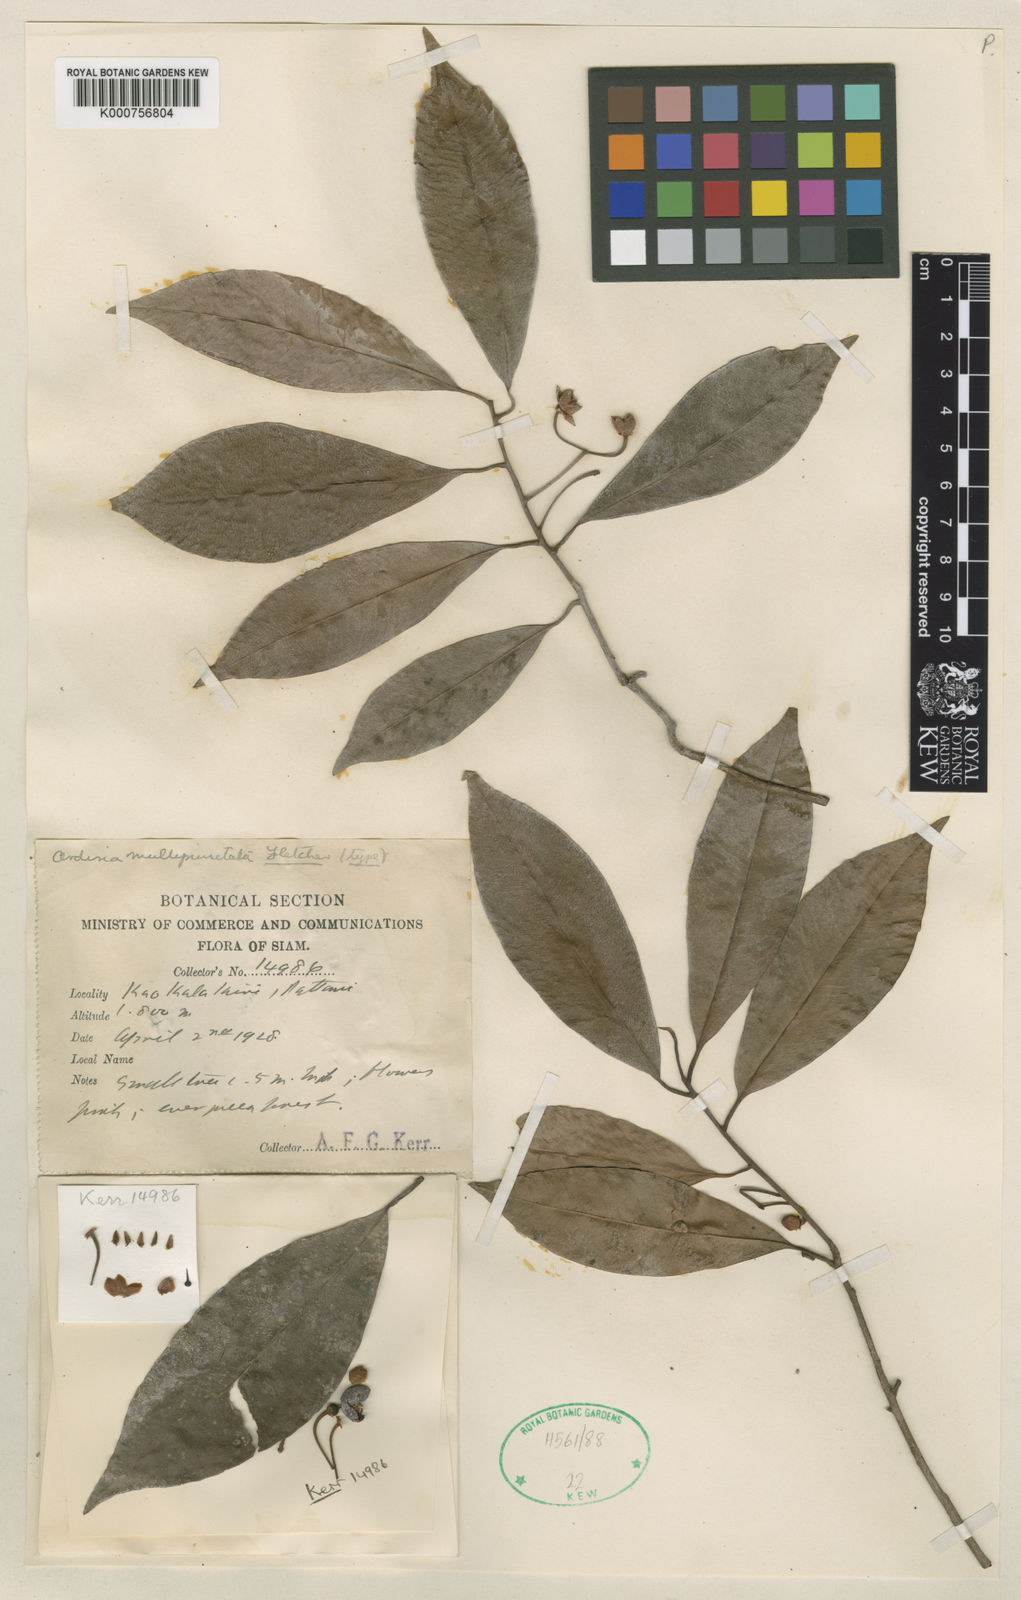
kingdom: Plantae
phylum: Tracheophyta
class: Magnoliopsida
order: Ericales
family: Primulaceae
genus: Ardisia
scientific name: Ardisia multipunctata
